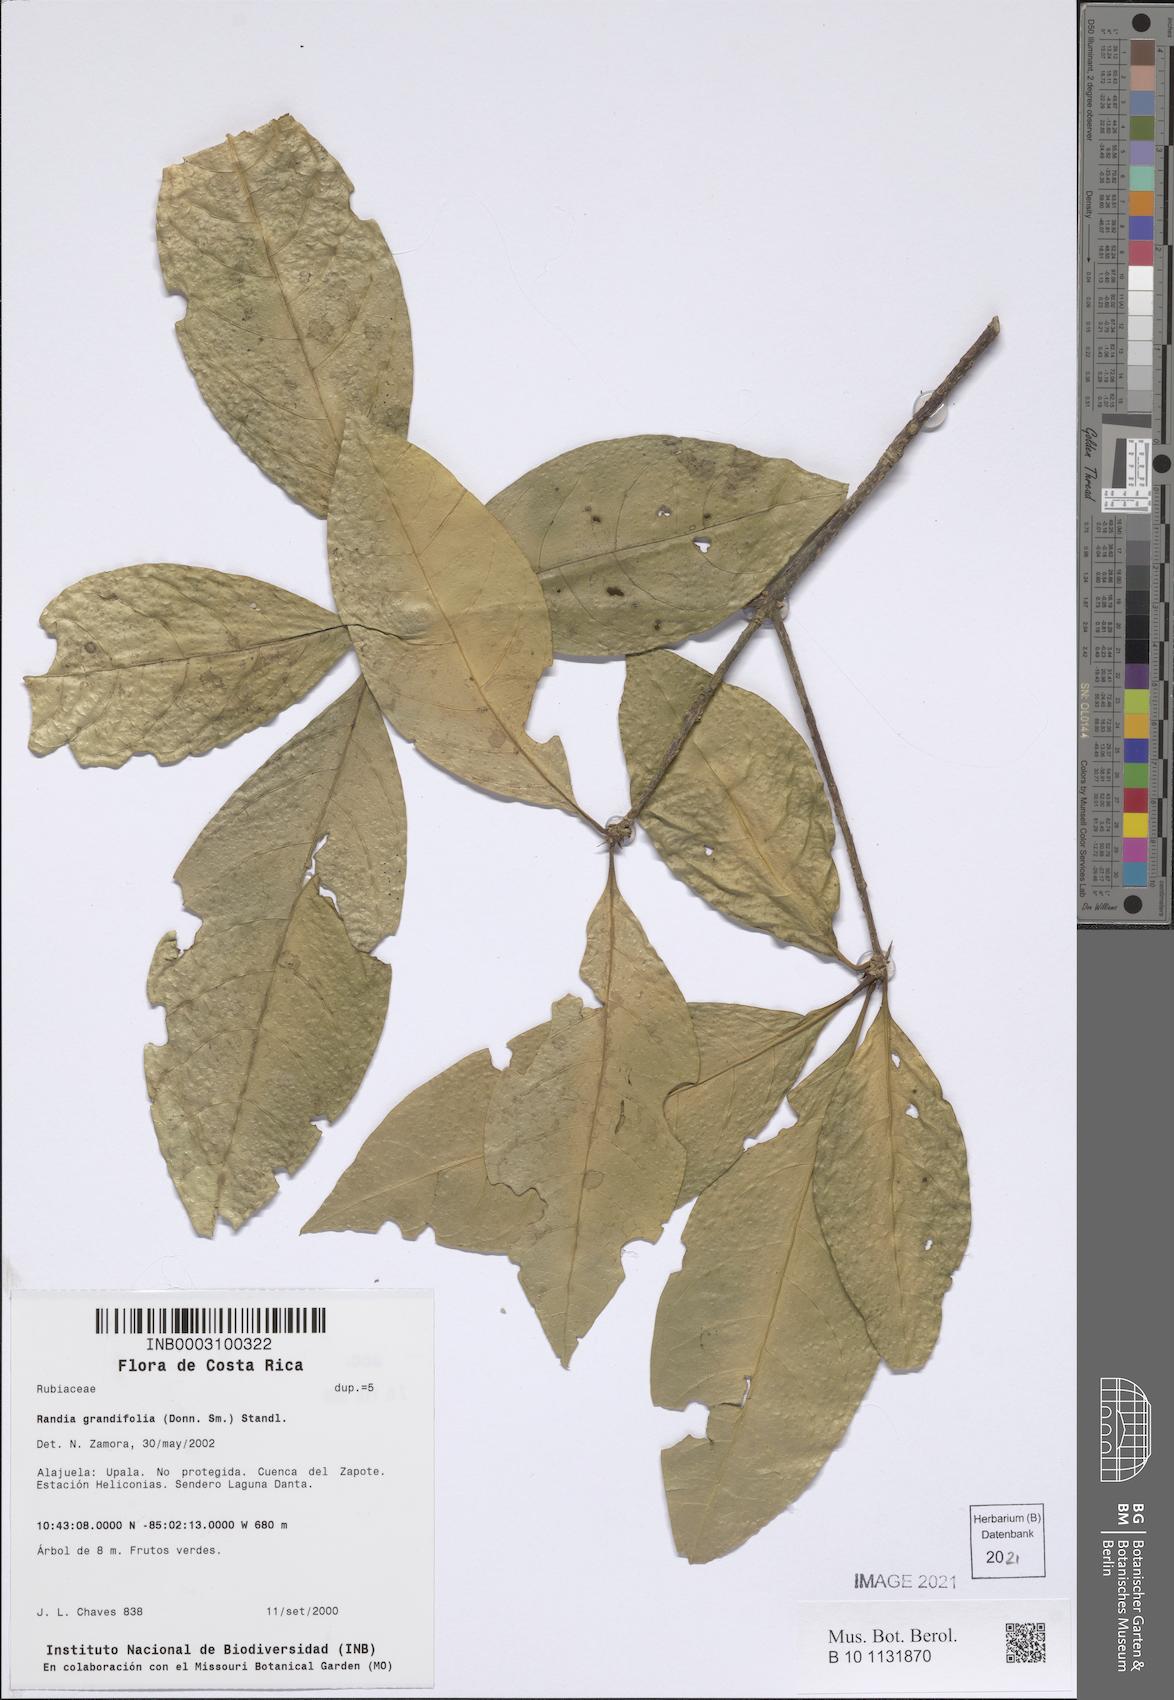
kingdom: Plantae
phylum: Tracheophyta
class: Magnoliopsida
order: Gentianales
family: Rubiaceae
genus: Randia
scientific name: Randia grandifolia
